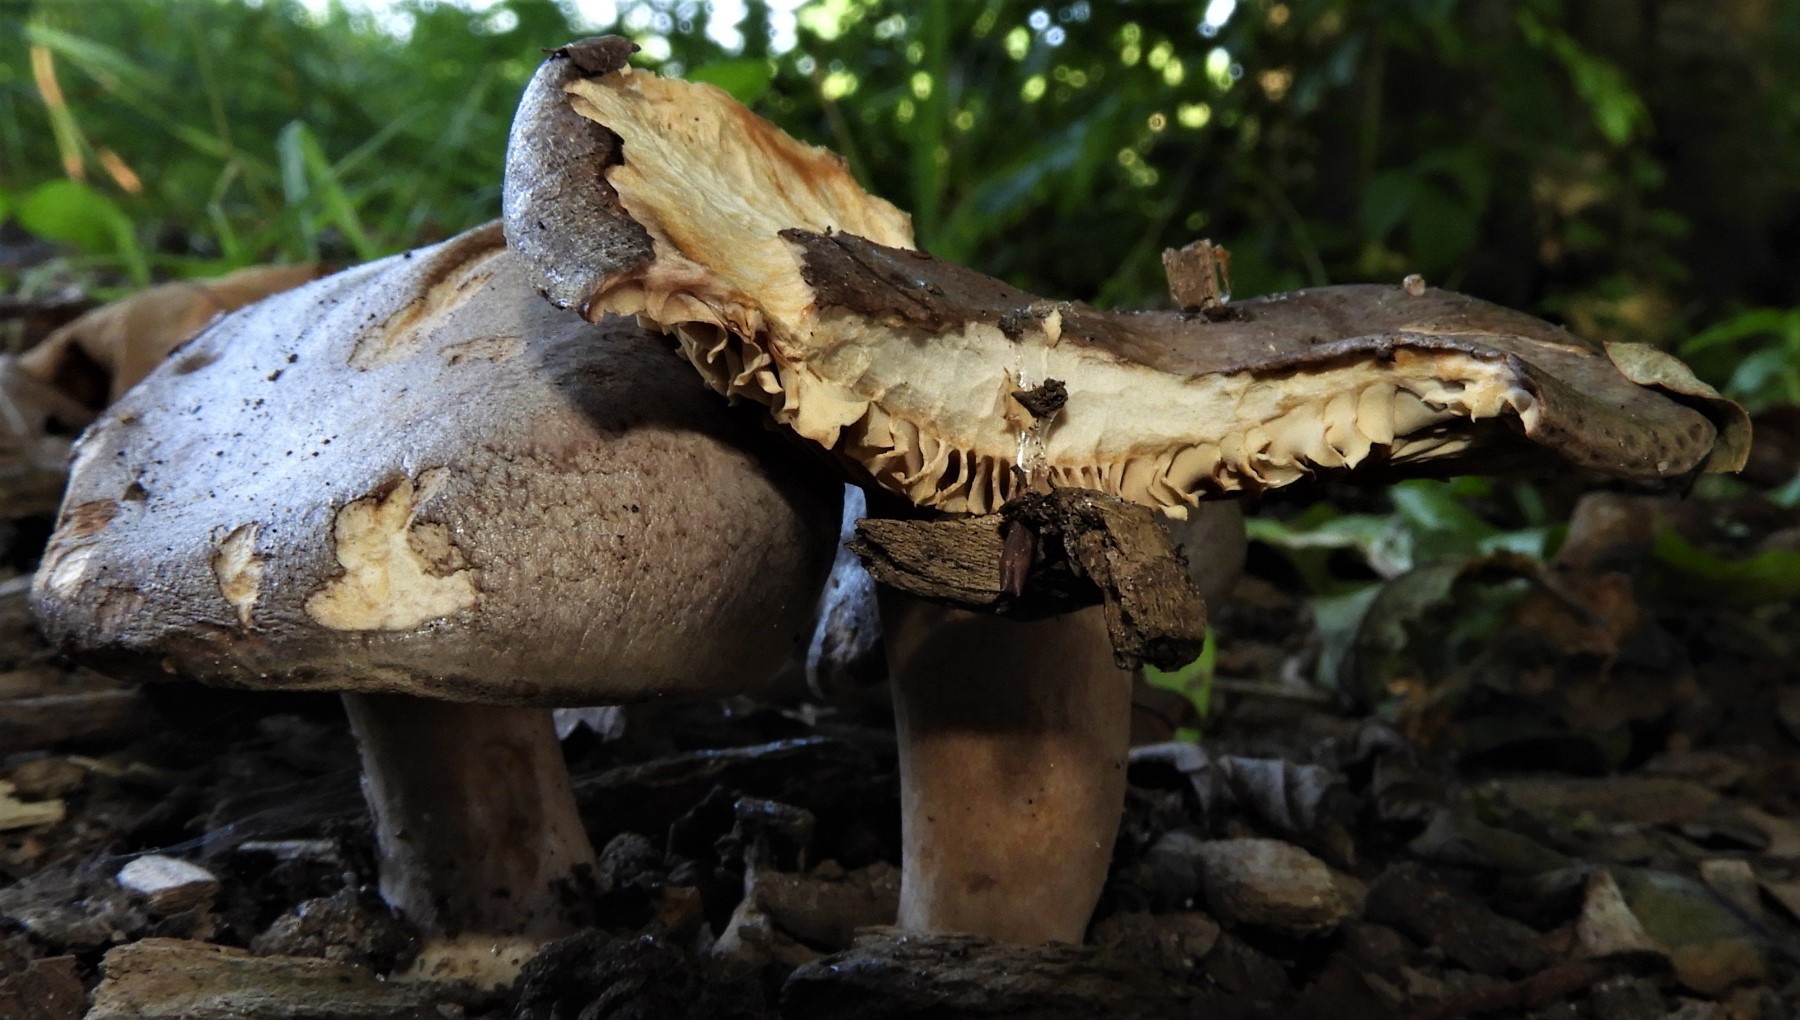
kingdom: Fungi
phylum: Basidiomycota
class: Agaricomycetes
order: Russulales
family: Russulaceae
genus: Lactarius
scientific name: Lactarius circellatus
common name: avnbøg-mælkehat
